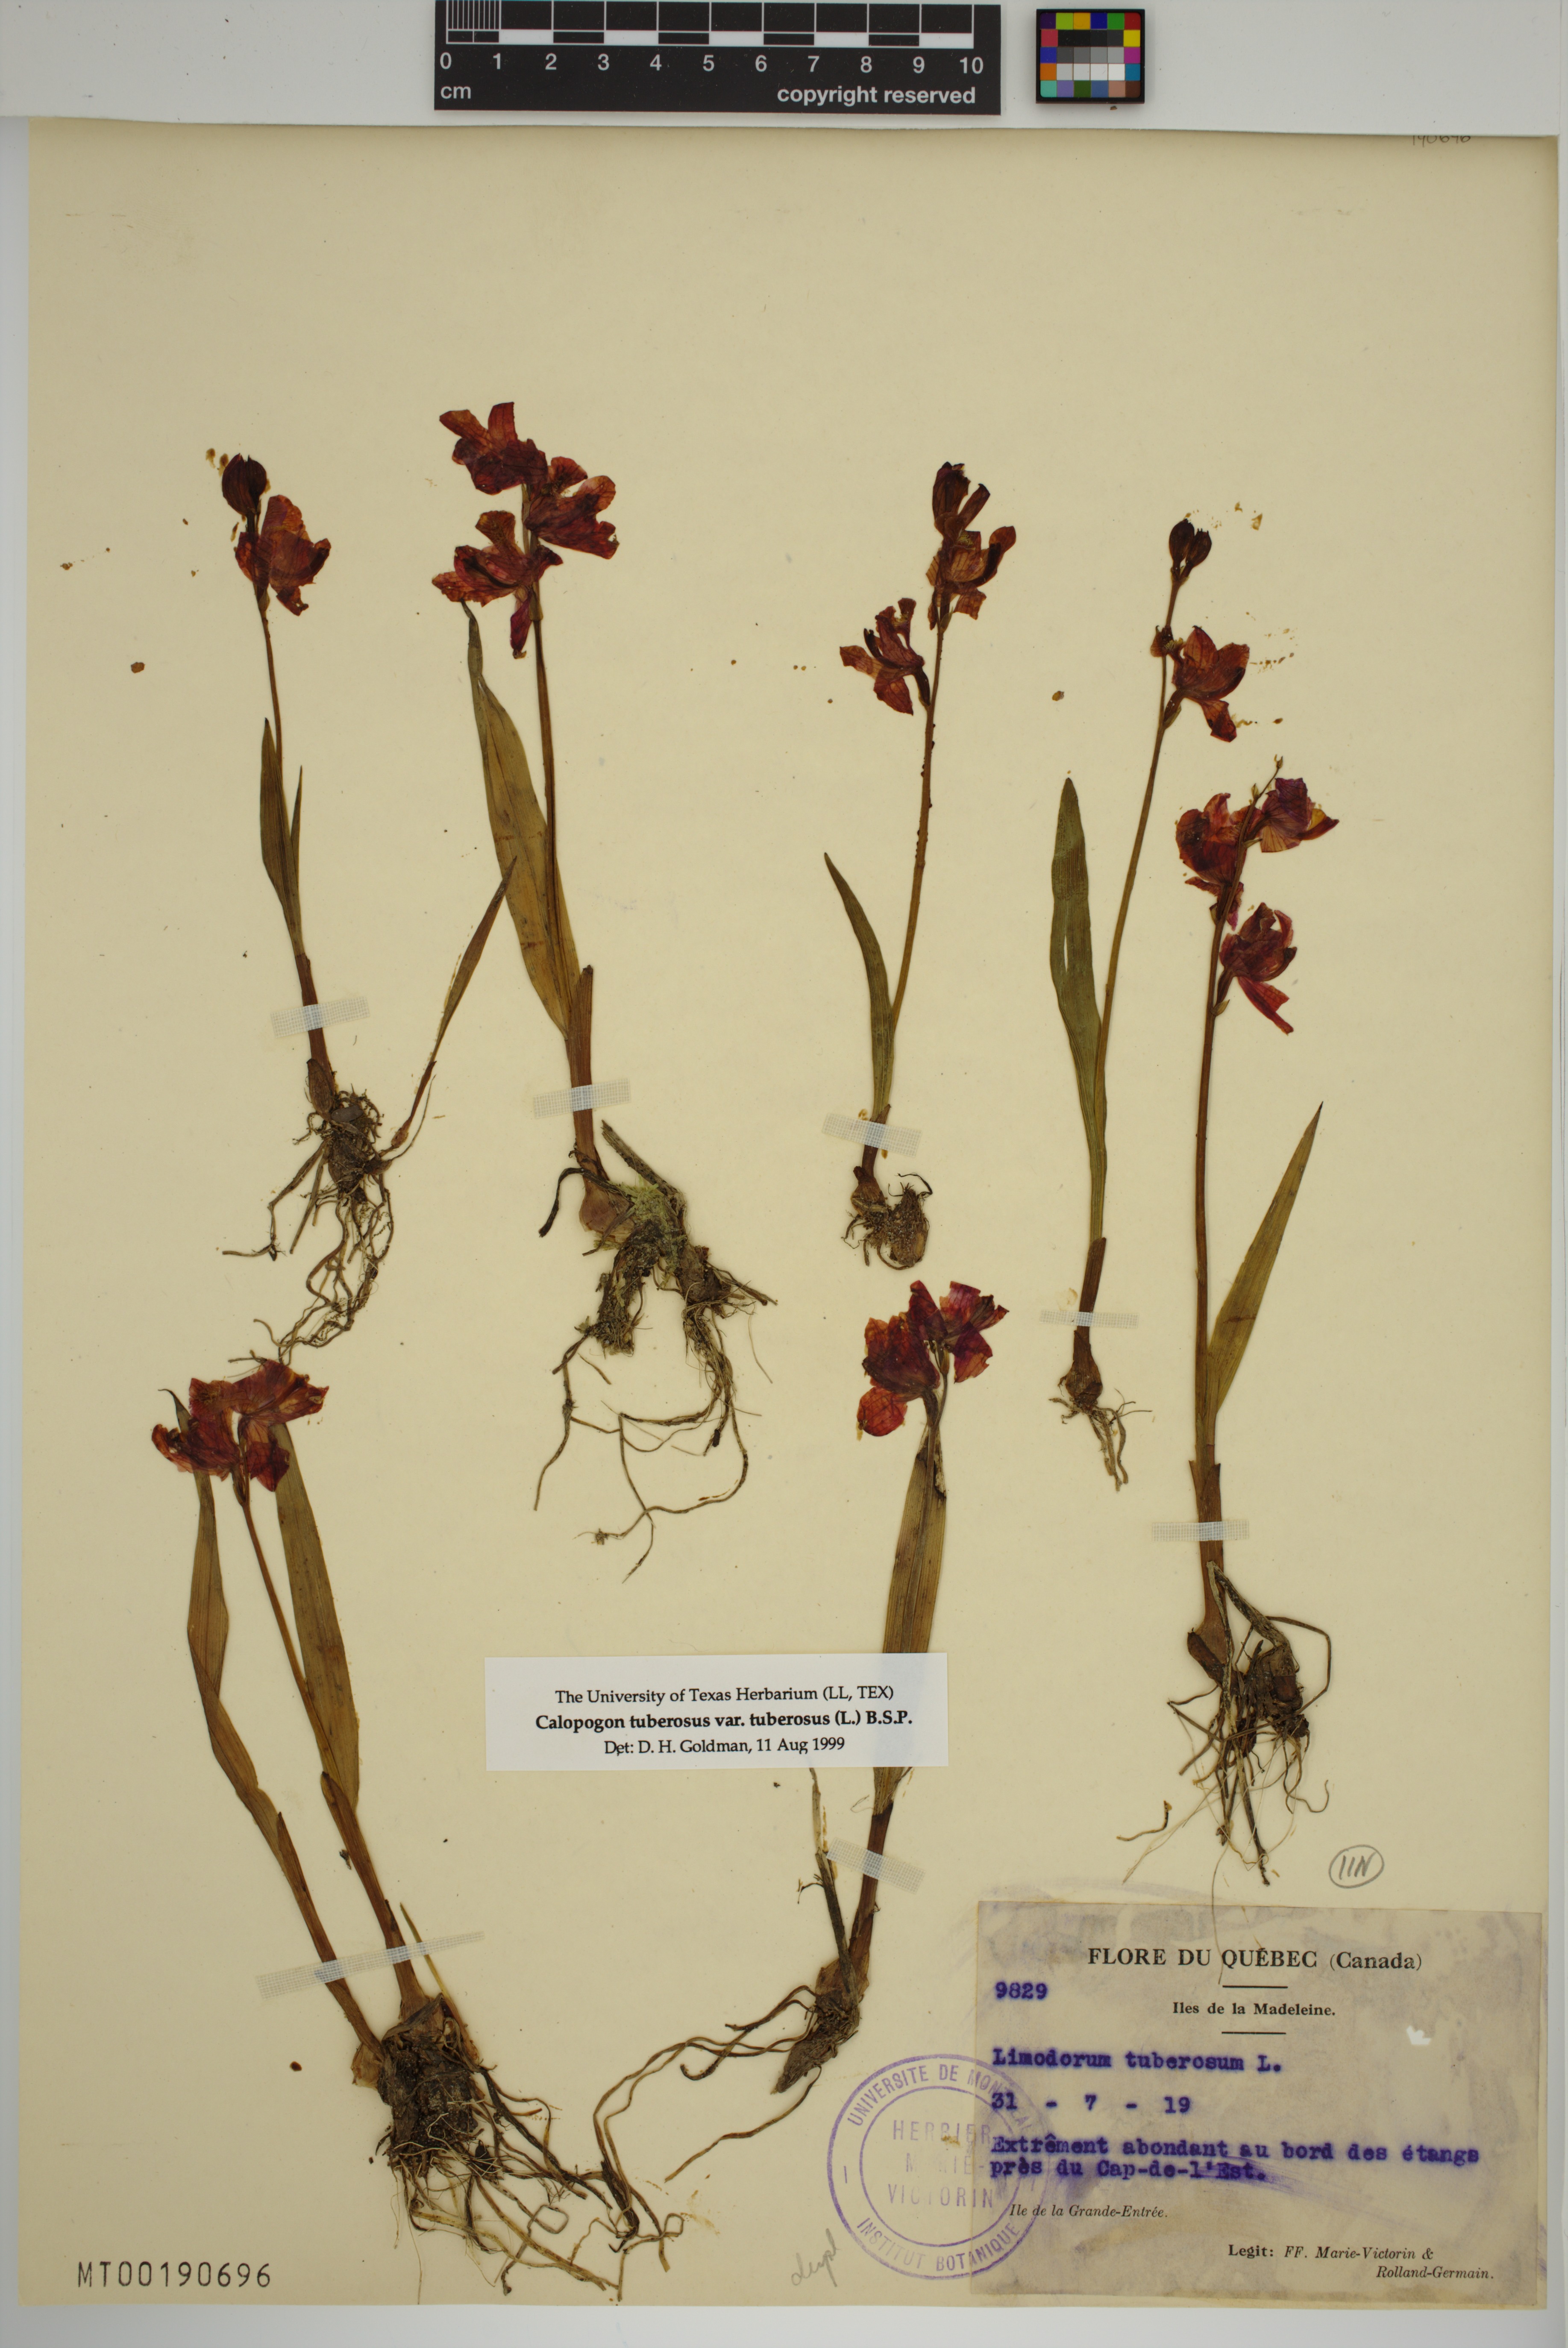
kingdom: Plantae
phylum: Tracheophyta
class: Liliopsida
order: Asparagales
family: Orchidaceae
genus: Calopogon
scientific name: Calopogon tuberosus
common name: Grass-pink
